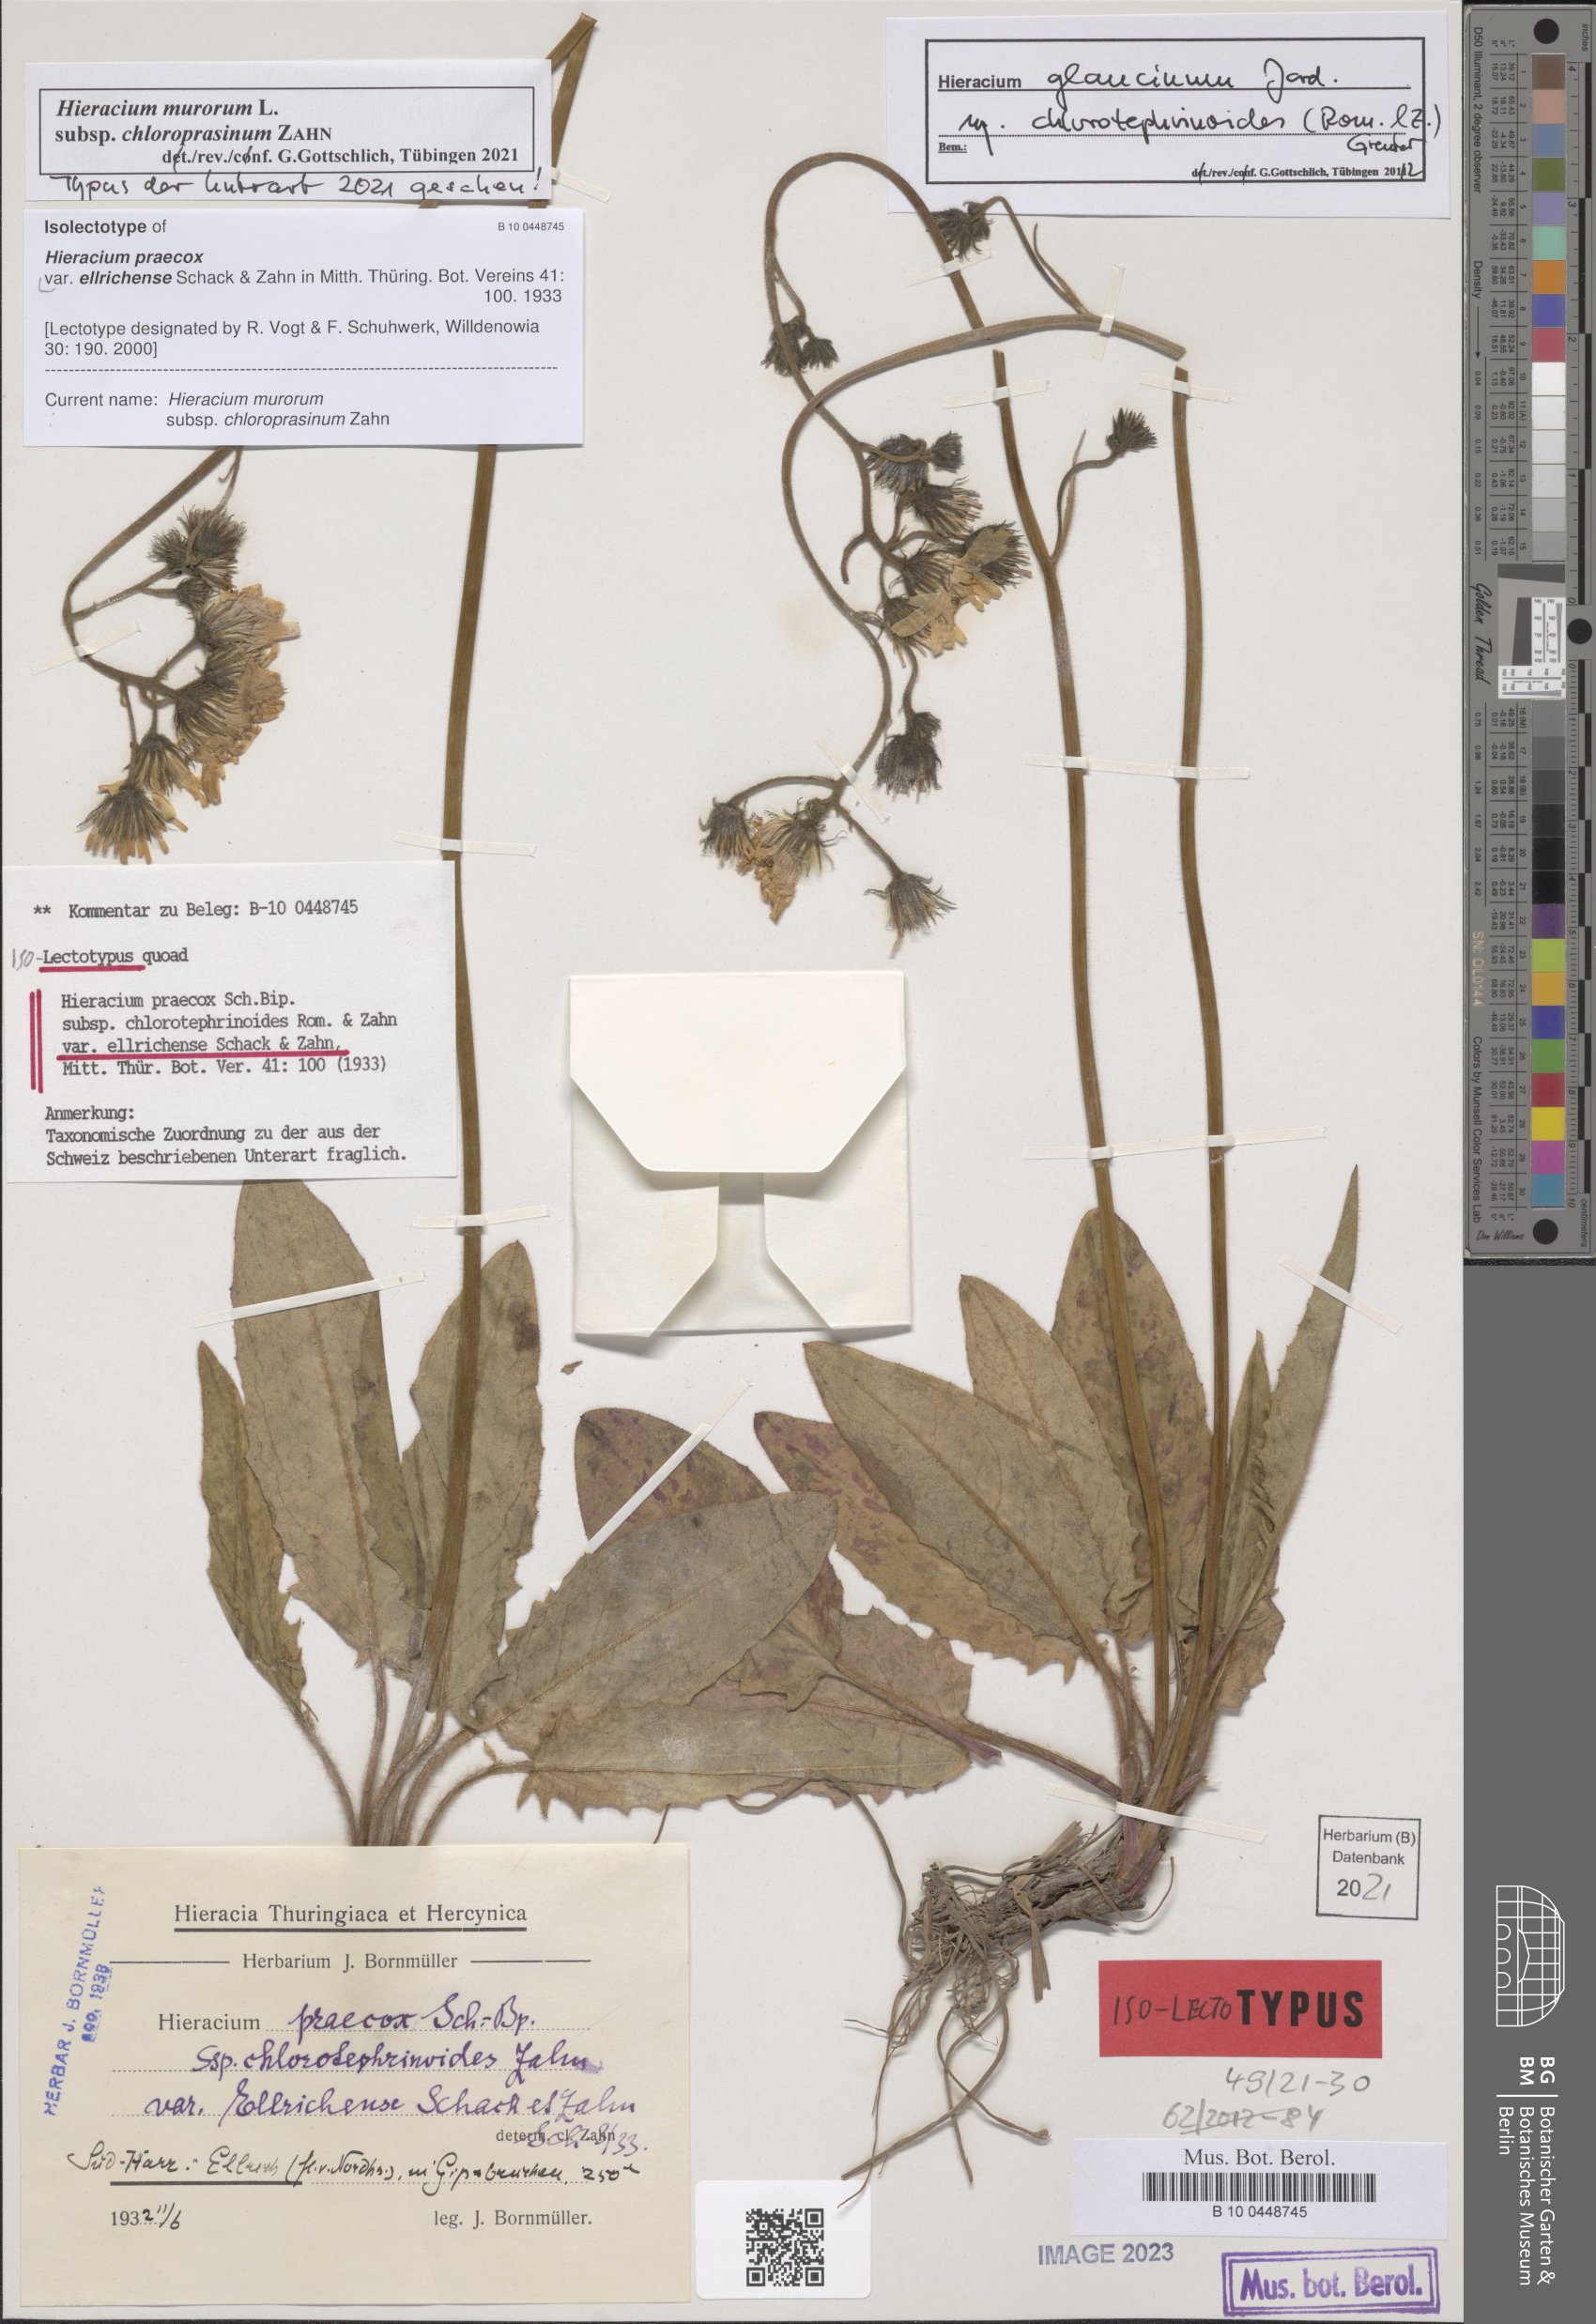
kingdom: Plantae
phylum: Tracheophyta
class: Magnoliopsida
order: Asterales
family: Asteraceae
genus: Hieracium
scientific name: Hieracium praecox
